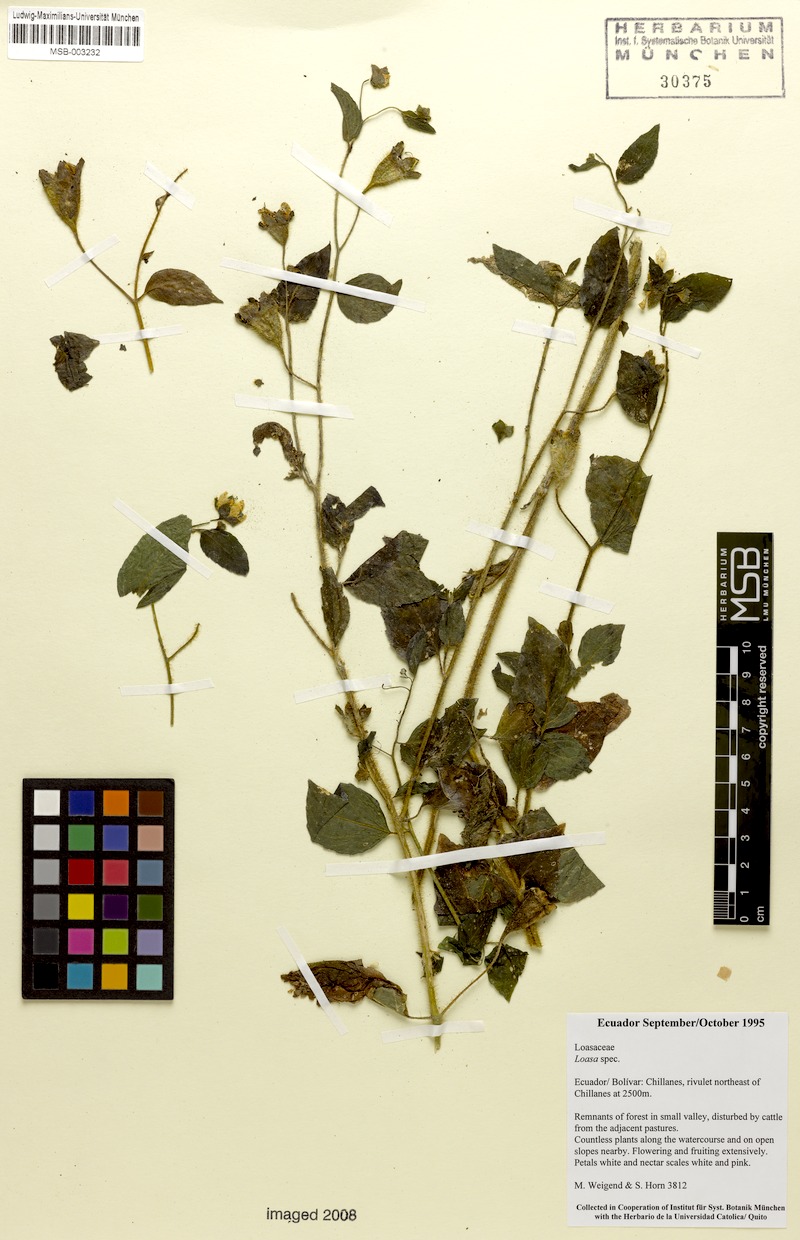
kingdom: Plantae
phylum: Tracheophyta
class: Magnoliopsida
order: Cornales
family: Loasaceae
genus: Nasa
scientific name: Nasa humboldtiana
